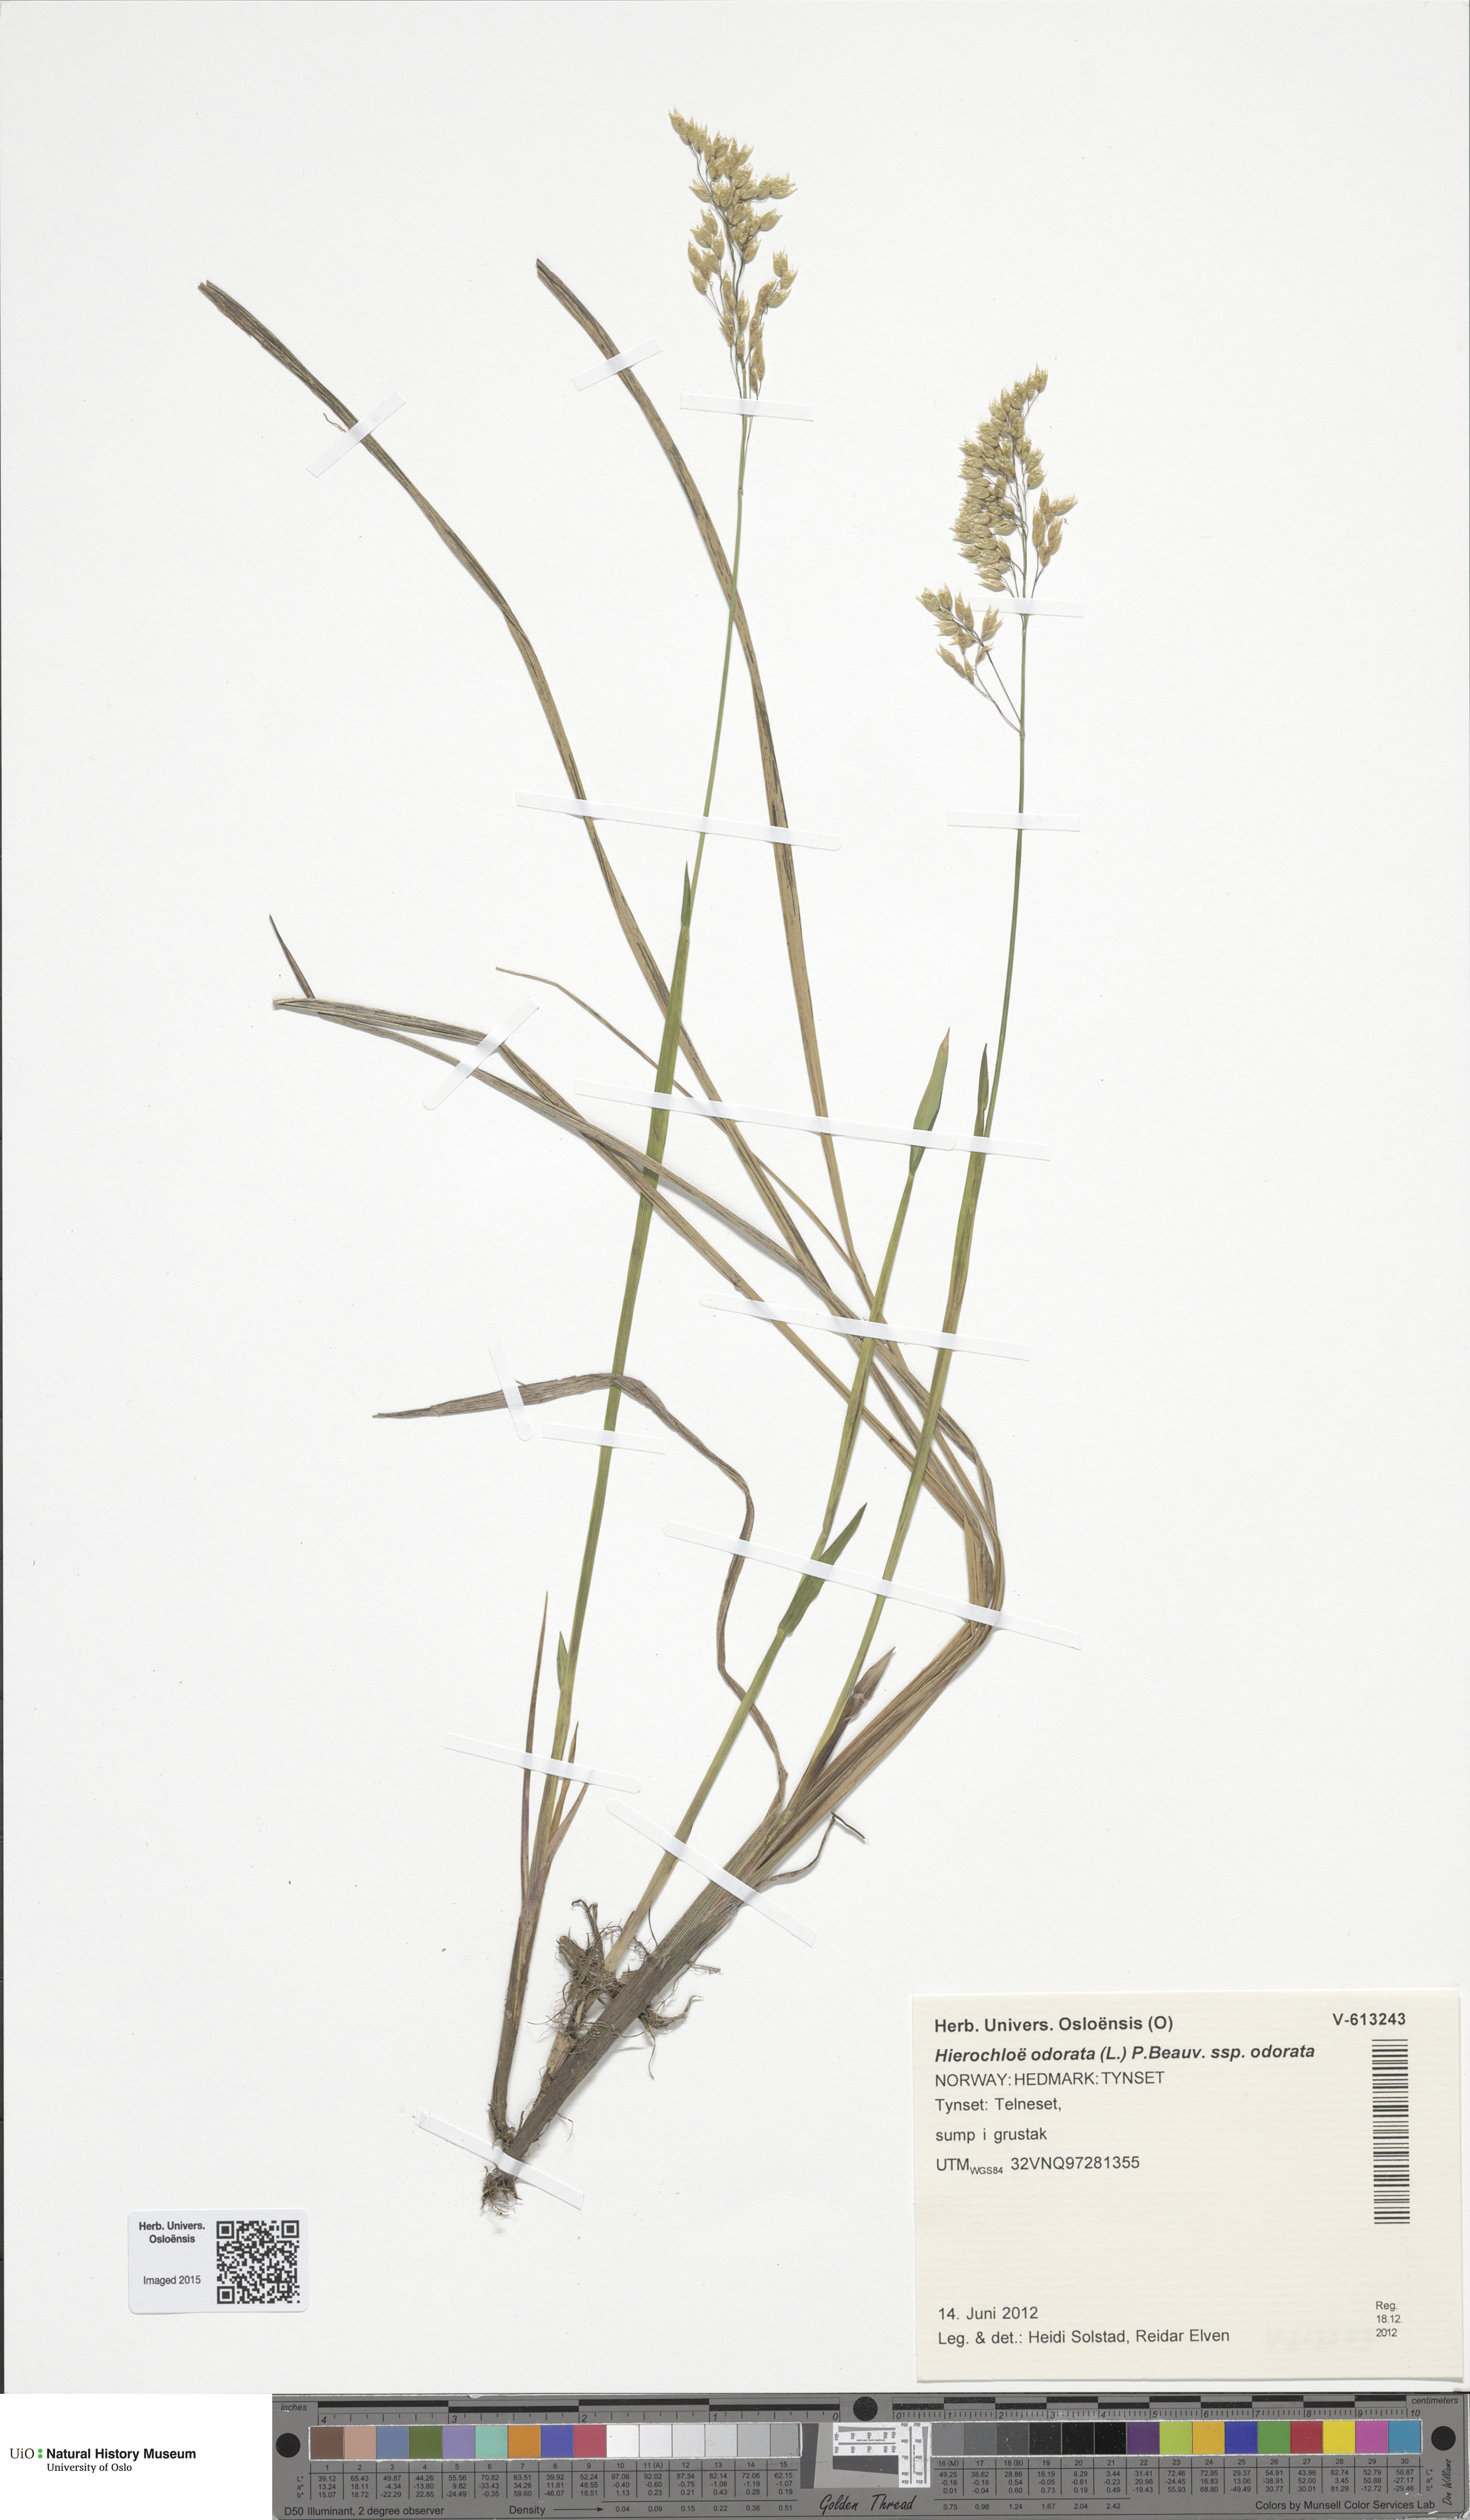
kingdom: Plantae
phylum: Tracheophyta
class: Liliopsida
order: Poales
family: Poaceae
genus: Anthoxanthum
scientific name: Anthoxanthum nitens
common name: Holy grass
